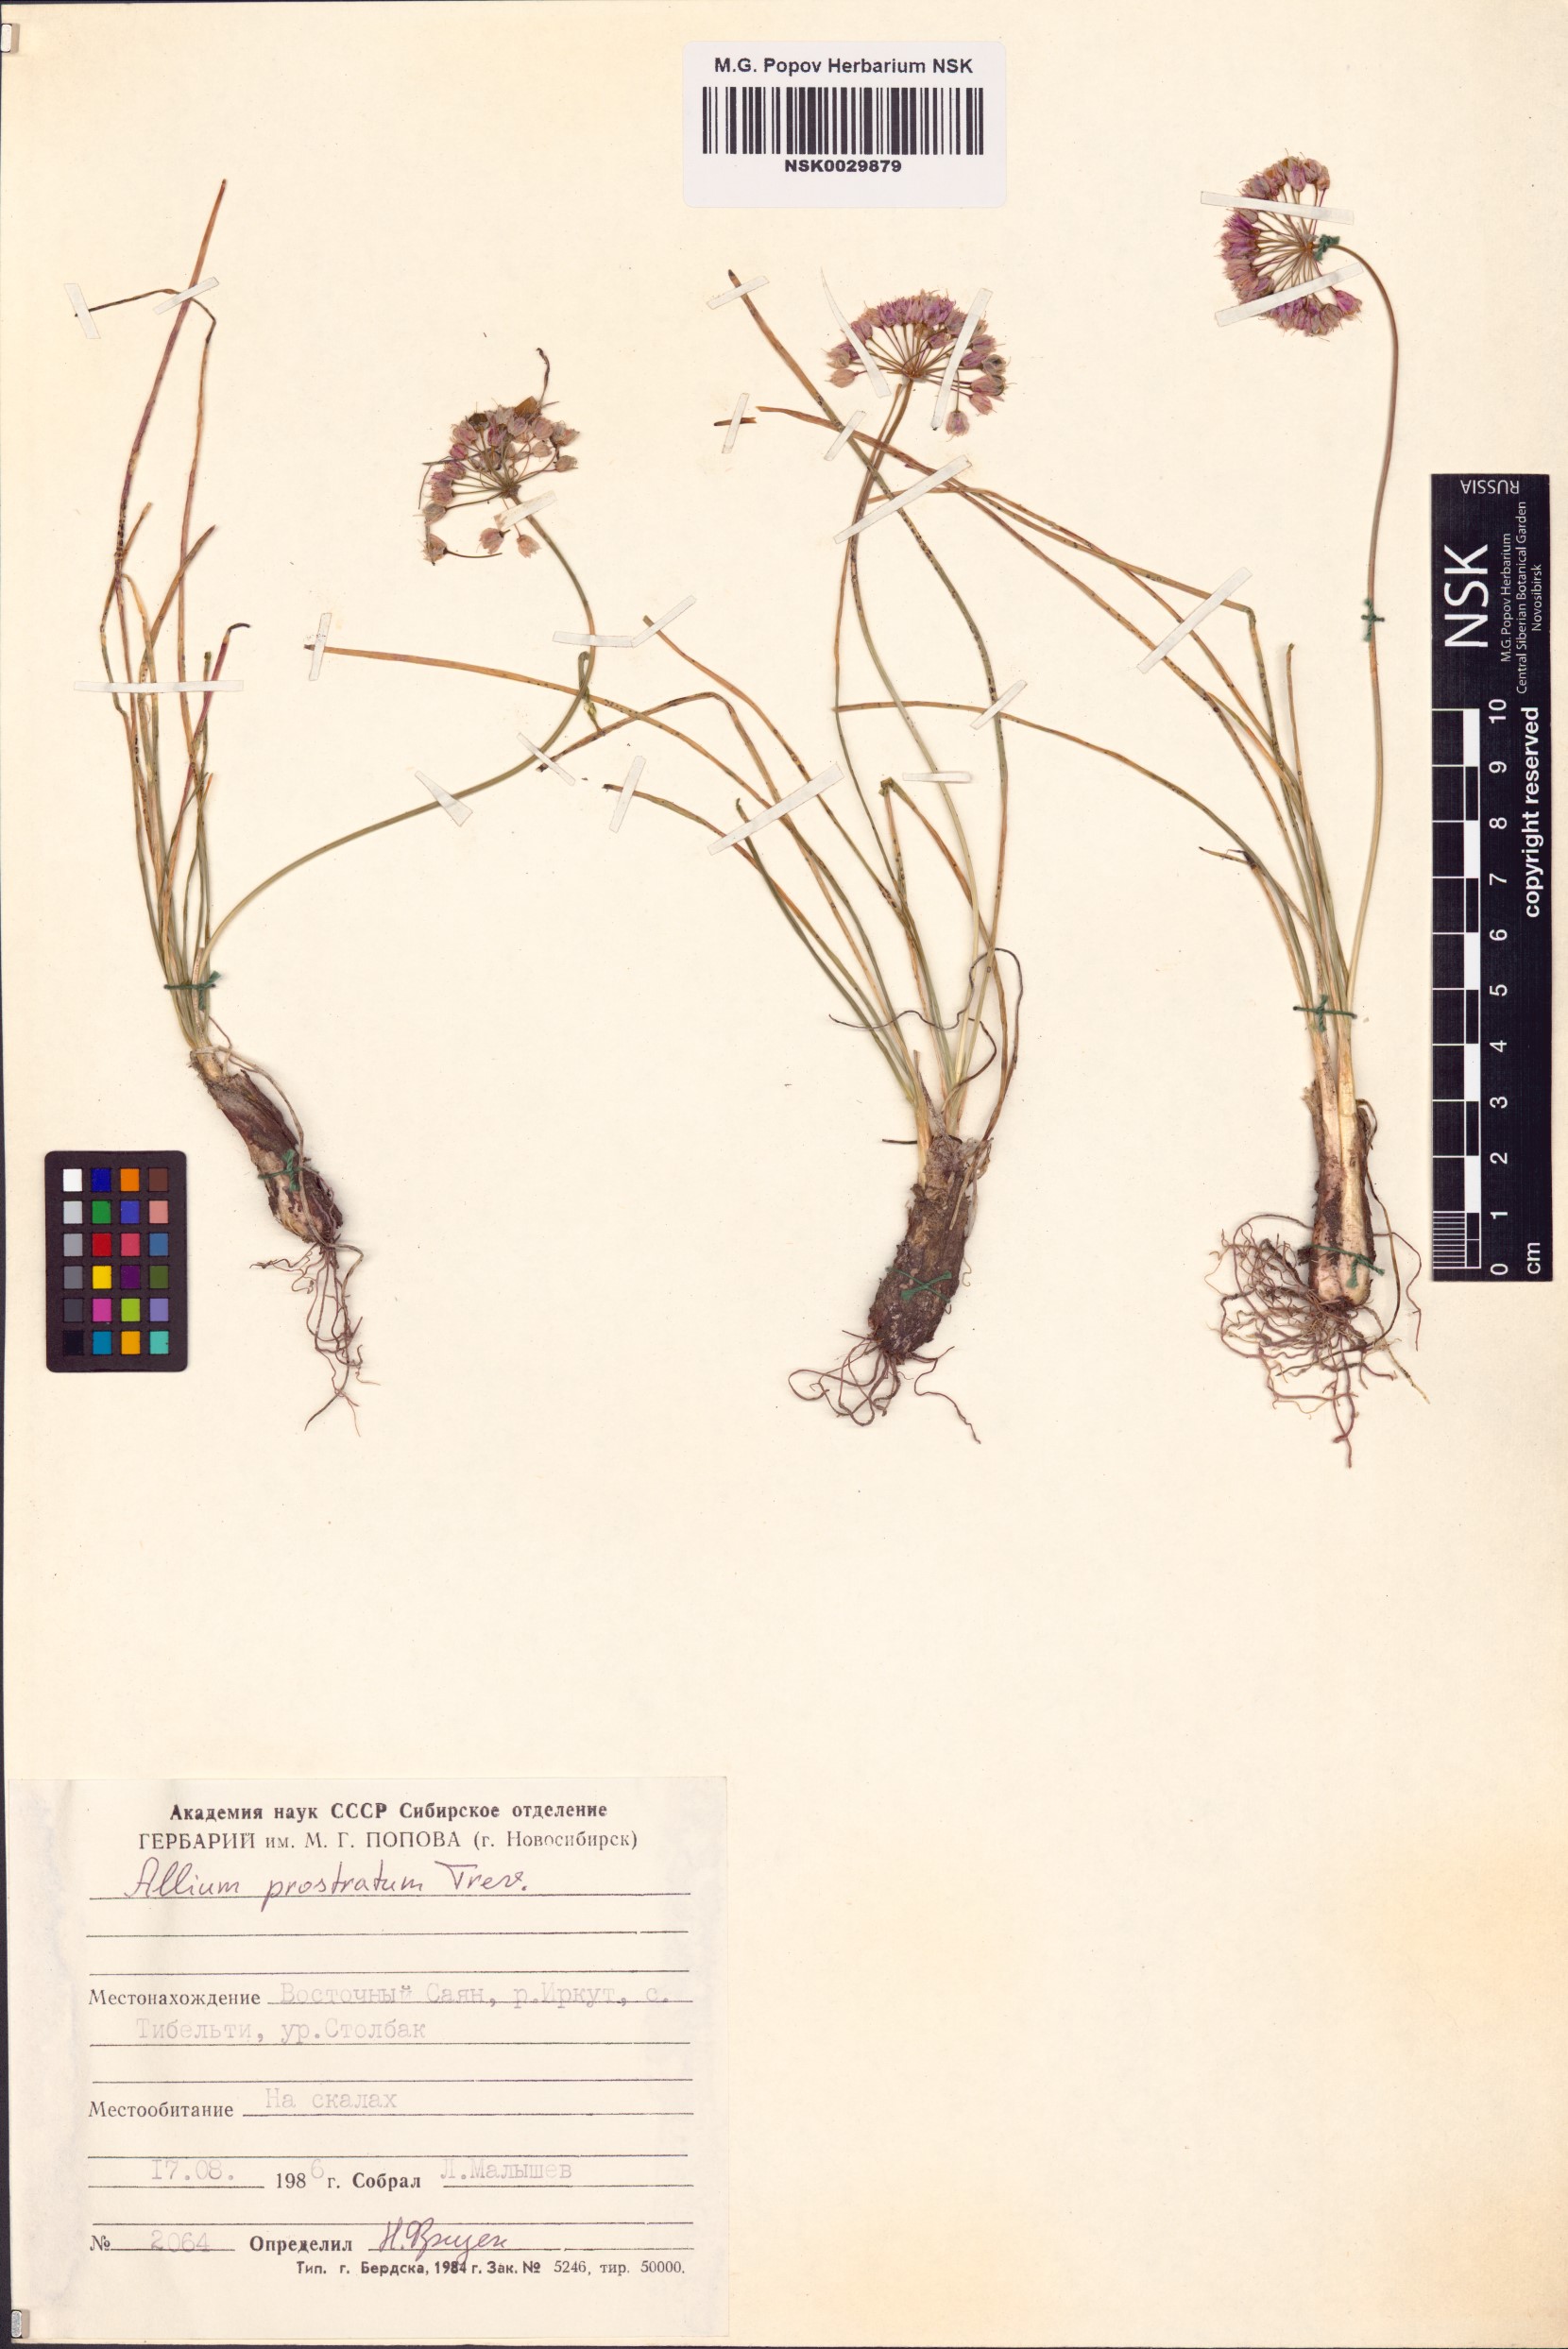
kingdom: Plantae
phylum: Tracheophyta
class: Liliopsida
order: Asparagales
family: Amaryllidaceae
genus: Allium
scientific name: Allium prostratum
